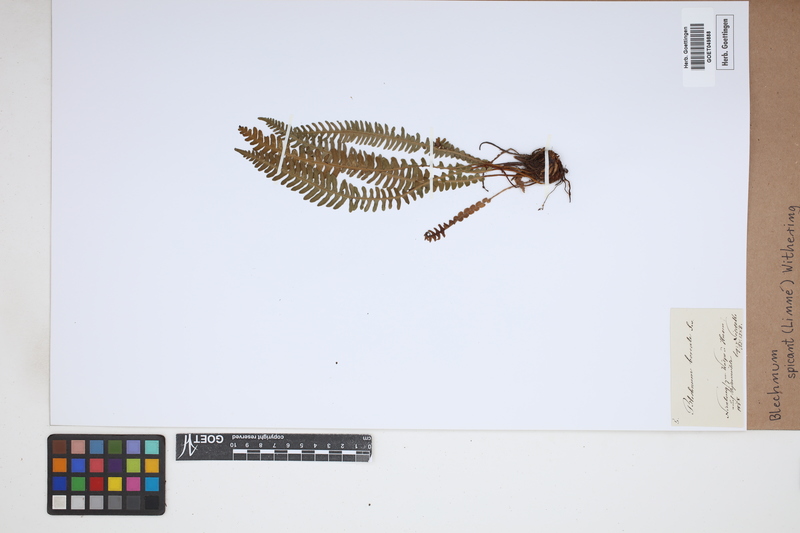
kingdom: Plantae
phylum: Tracheophyta
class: Polypodiopsida
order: Polypodiales
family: Blechnaceae
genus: Struthiopteris
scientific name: Struthiopteris spicant
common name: Deer fern
